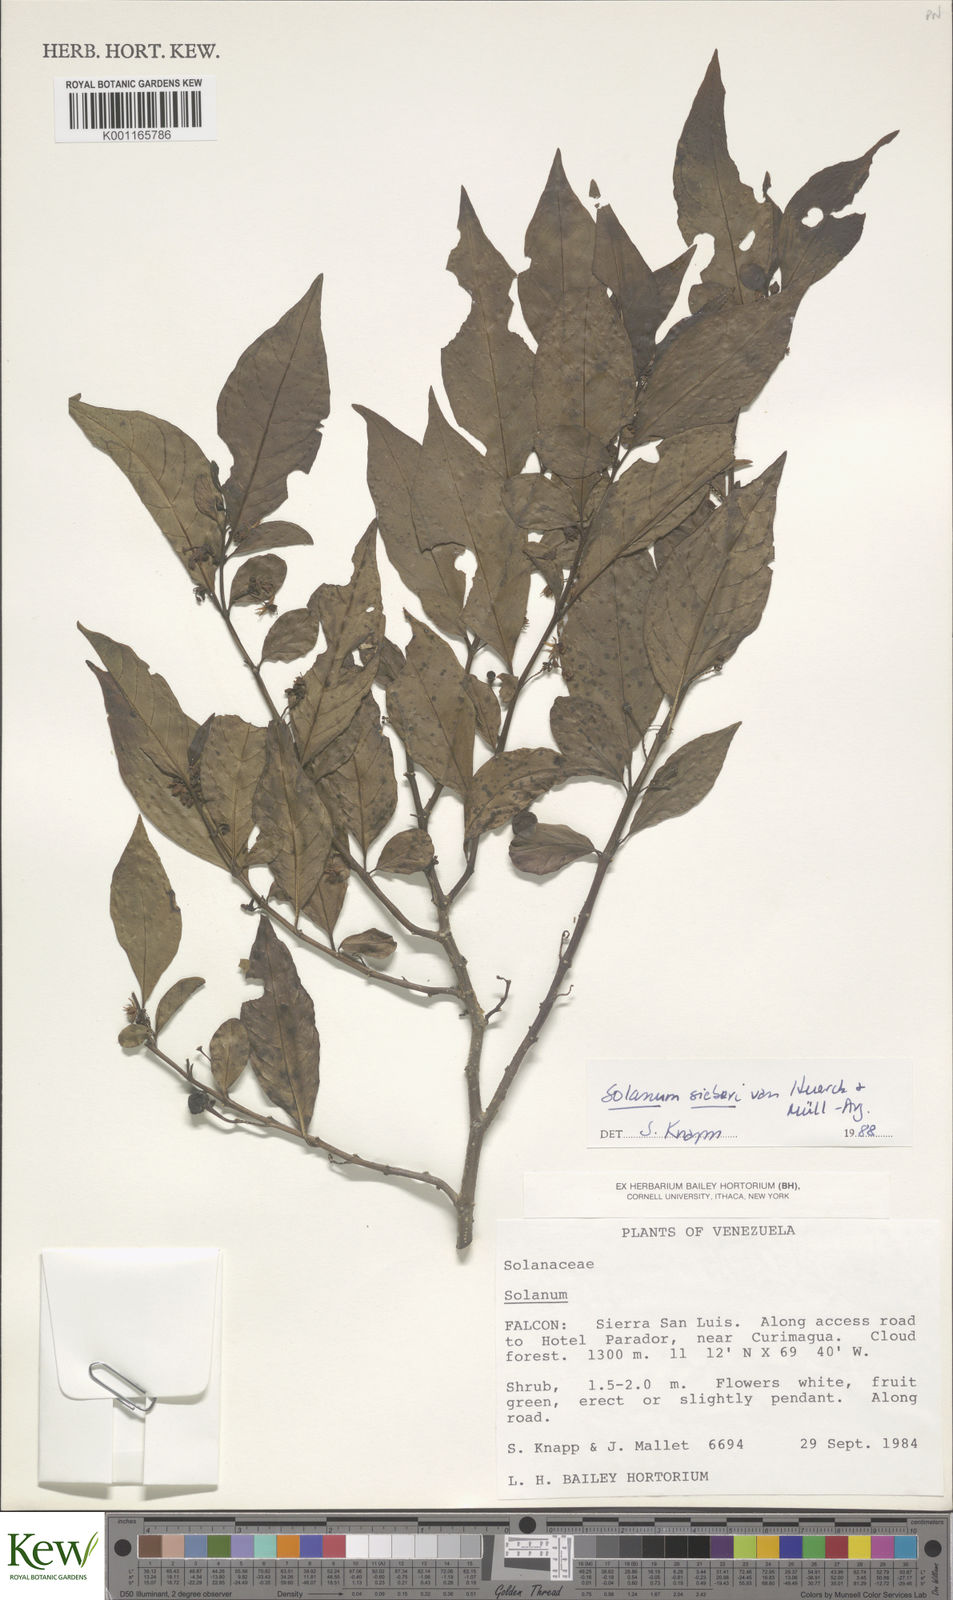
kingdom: Plantae
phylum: Tracheophyta
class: Magnoliopsida
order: Solanales
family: Solanaceae
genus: Solanum
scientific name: Solanum sieberi
